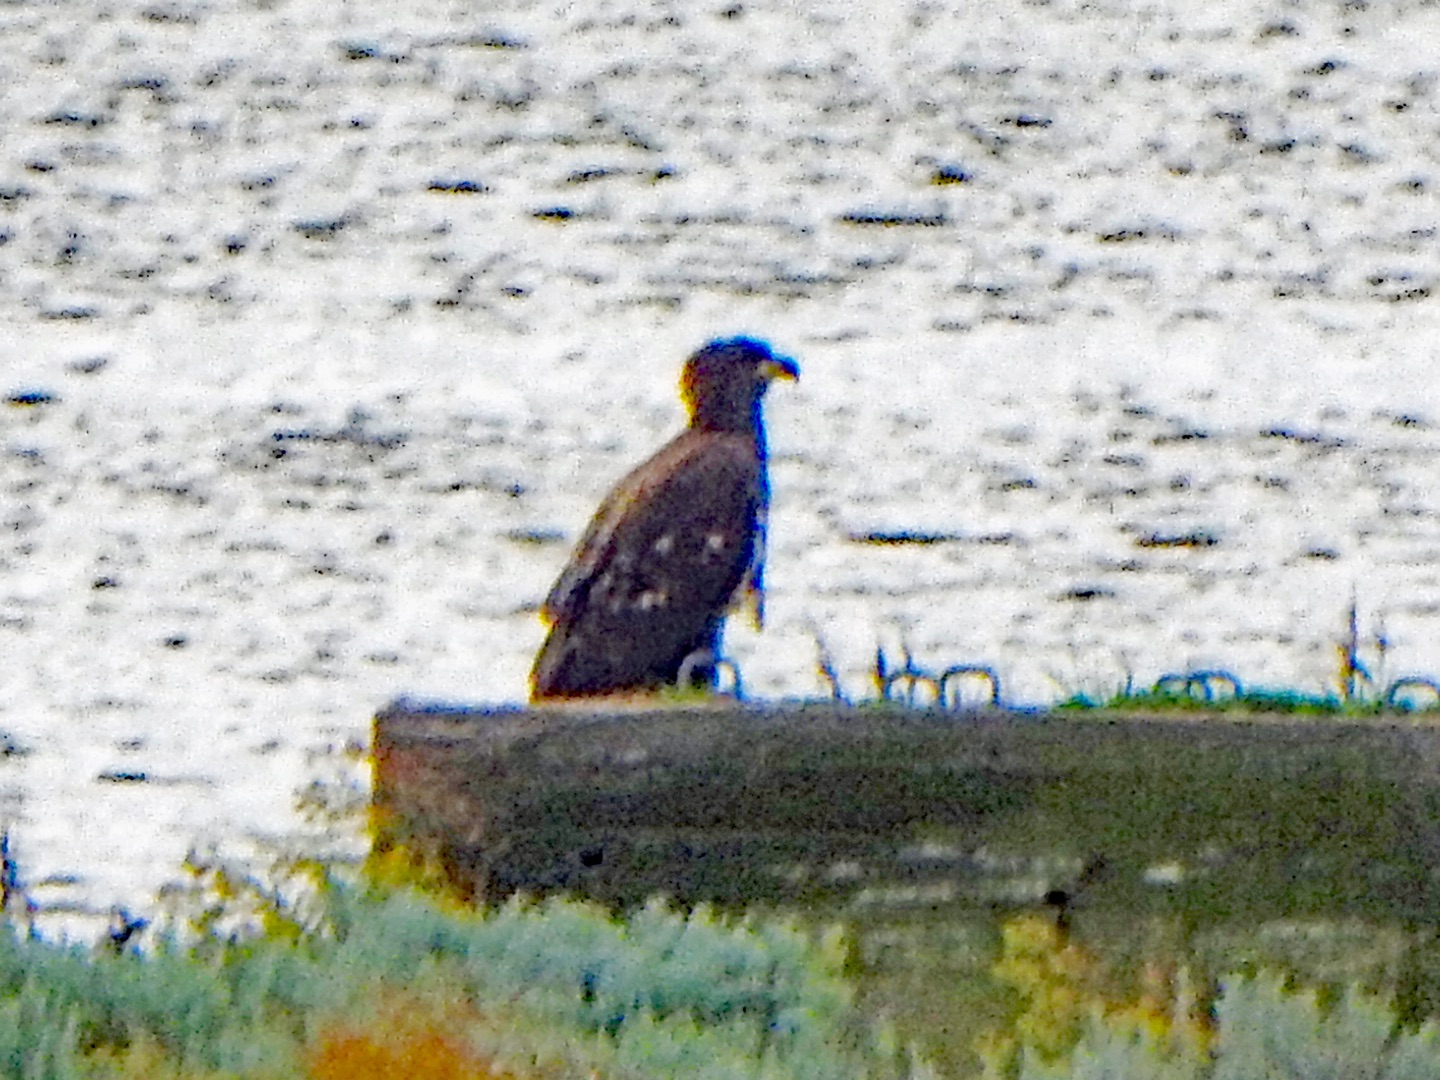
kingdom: Animalia
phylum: Chordata
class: Aves
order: Accipitriformes
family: Accipitridae
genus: Haliaeetus
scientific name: Haliaeetus albicilla
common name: Havørn
